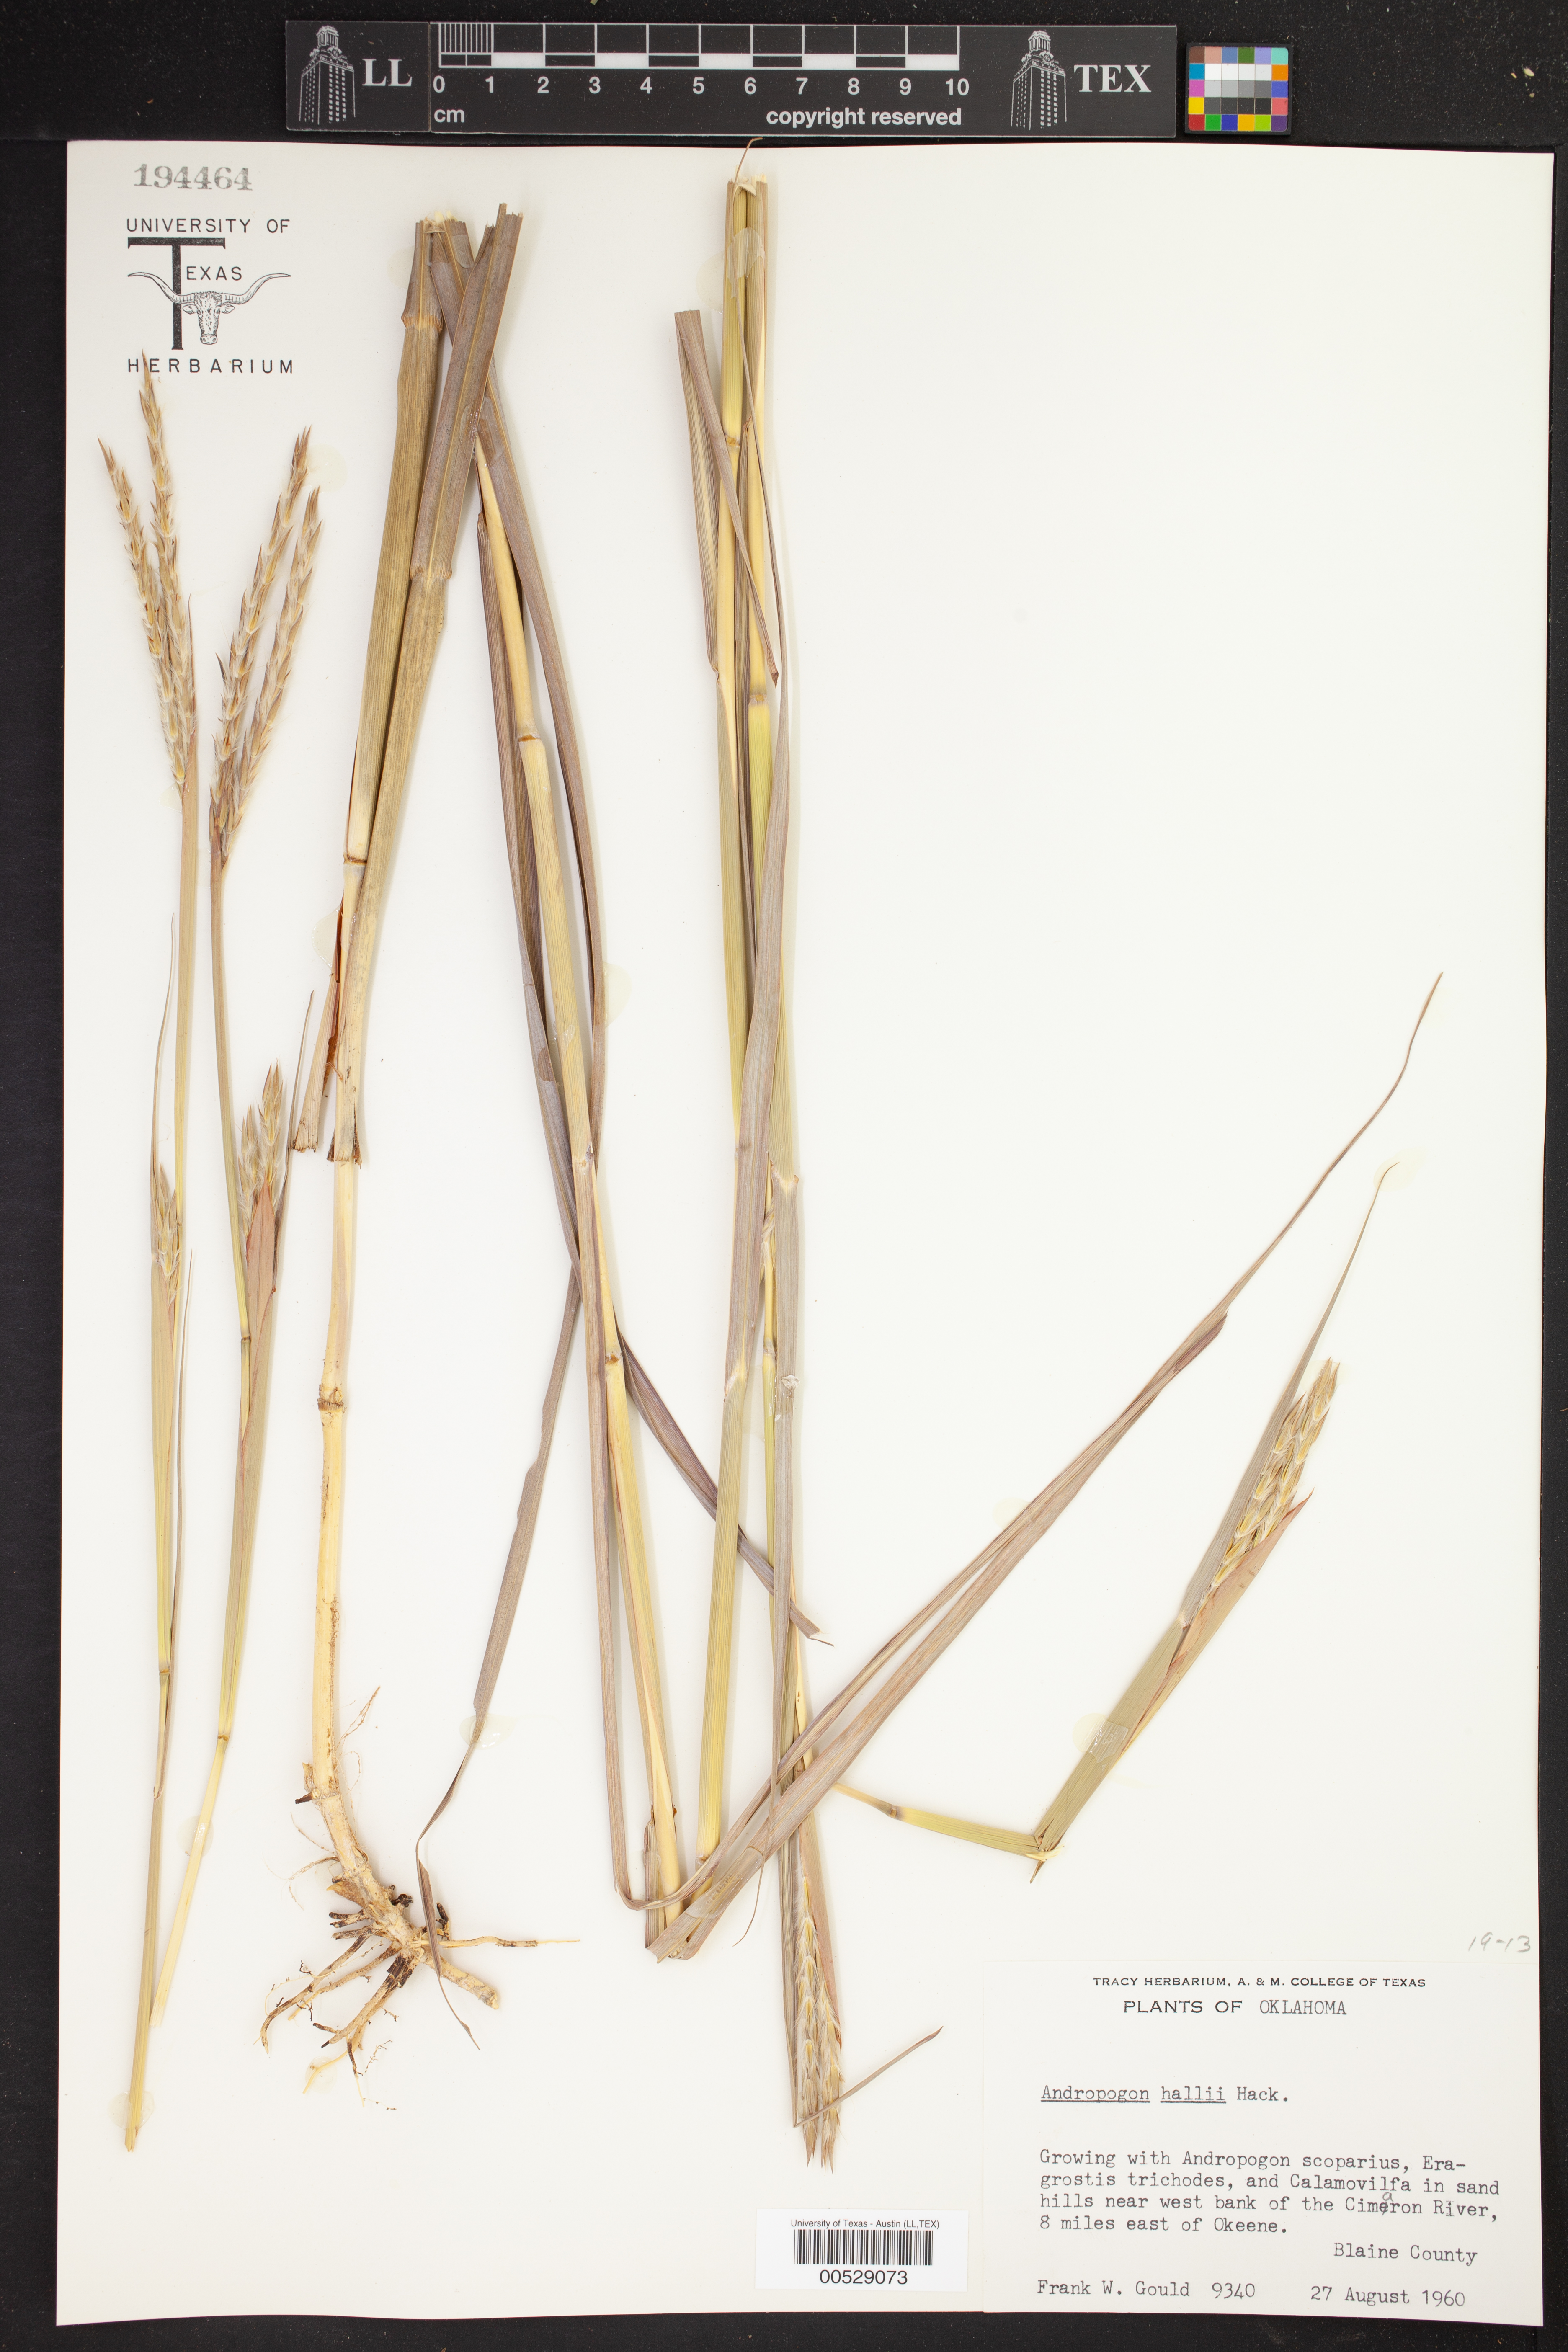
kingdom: Plantae
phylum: Tracheophyta
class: Liliopsida
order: Poales
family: Poaceae
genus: Andropogon
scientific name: Andropogon hallii
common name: Sand bluestem
